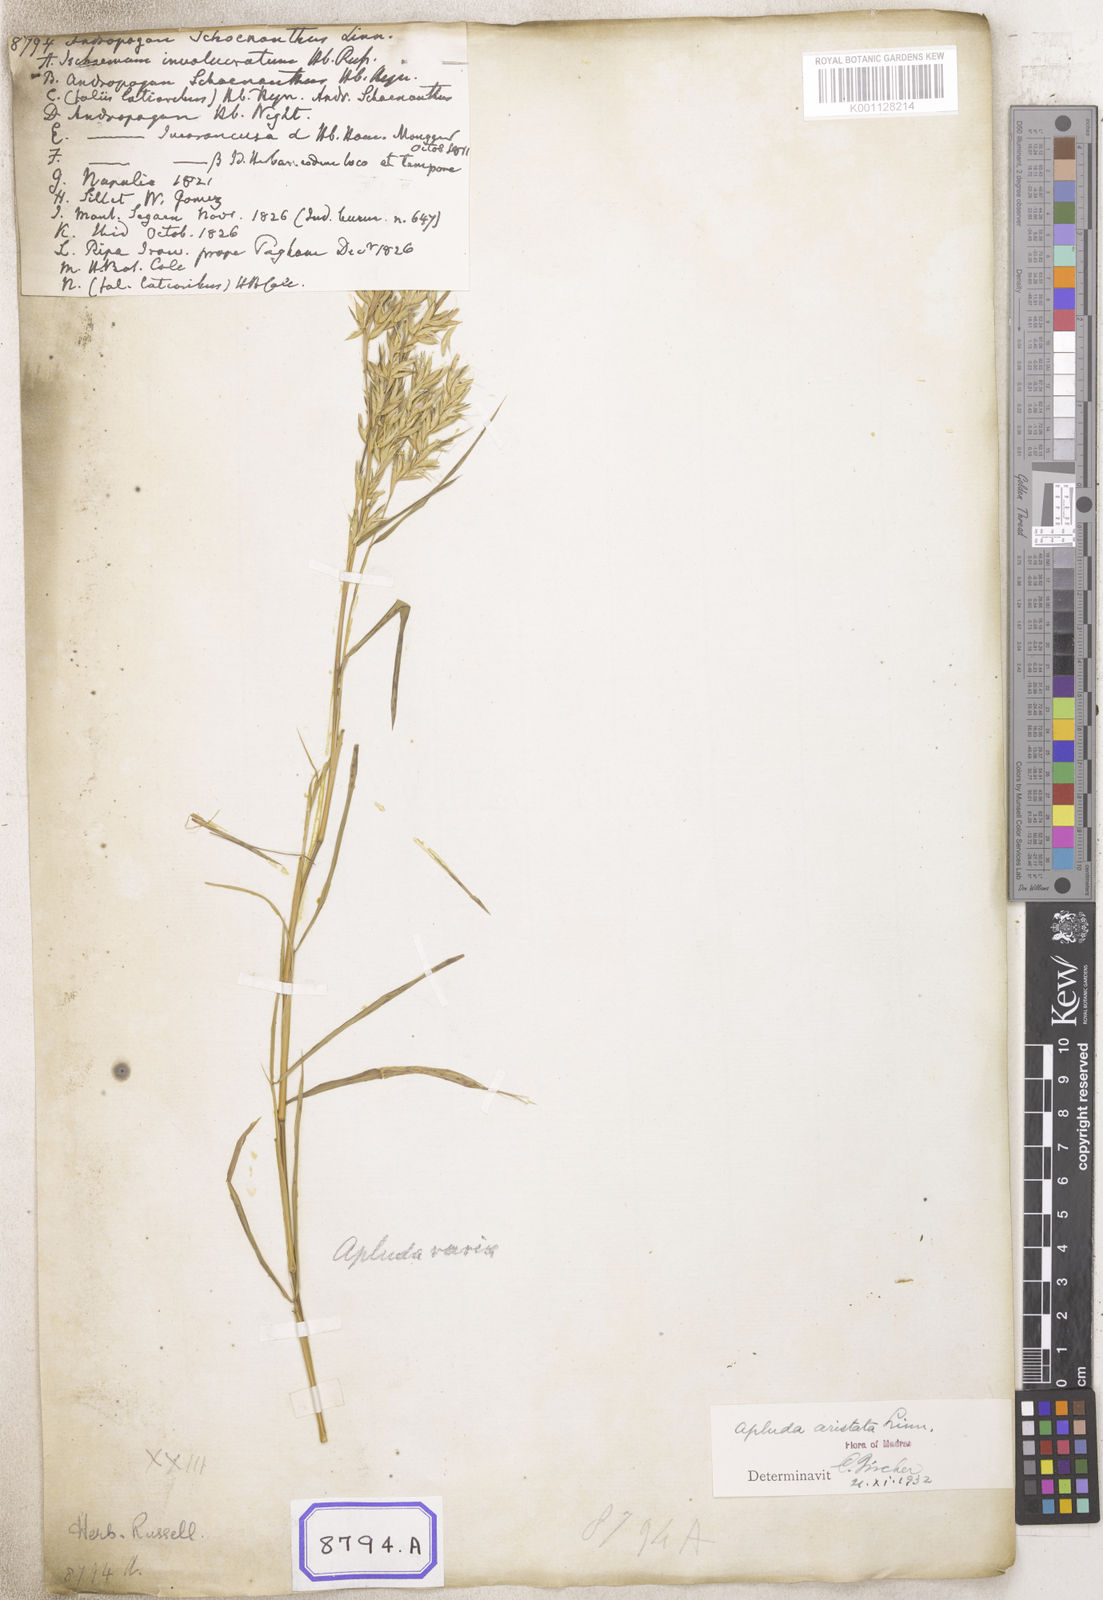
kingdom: Plantae
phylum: Tracheophyta
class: Liliopsida
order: Poales
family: Poaceae
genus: Cymbopogon
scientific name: Cymbopogon schoenanthus
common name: Geranium grass
